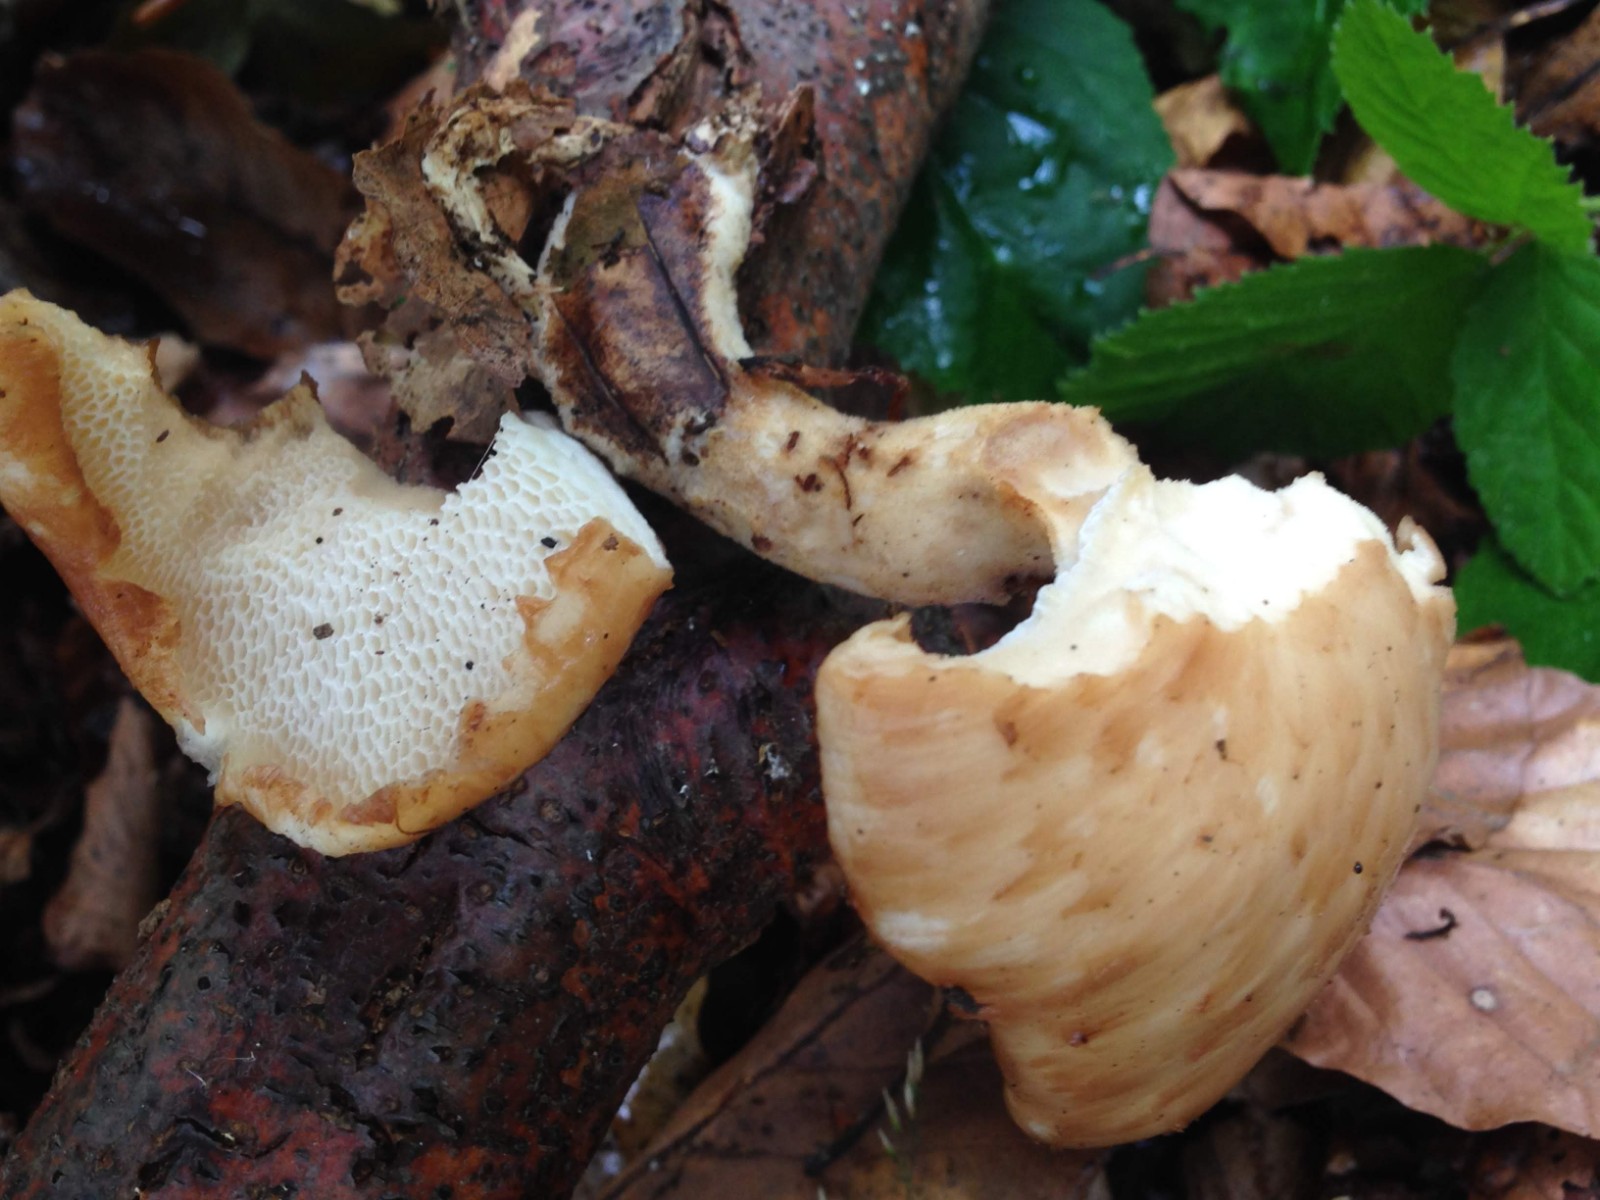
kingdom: Fungi
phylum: Basidiomycota
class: Agaricomycetes
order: Polyporales
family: Polyporaceae
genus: Polyporus
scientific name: Polyporus tuberaster
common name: knoldet stilkporesvamp
